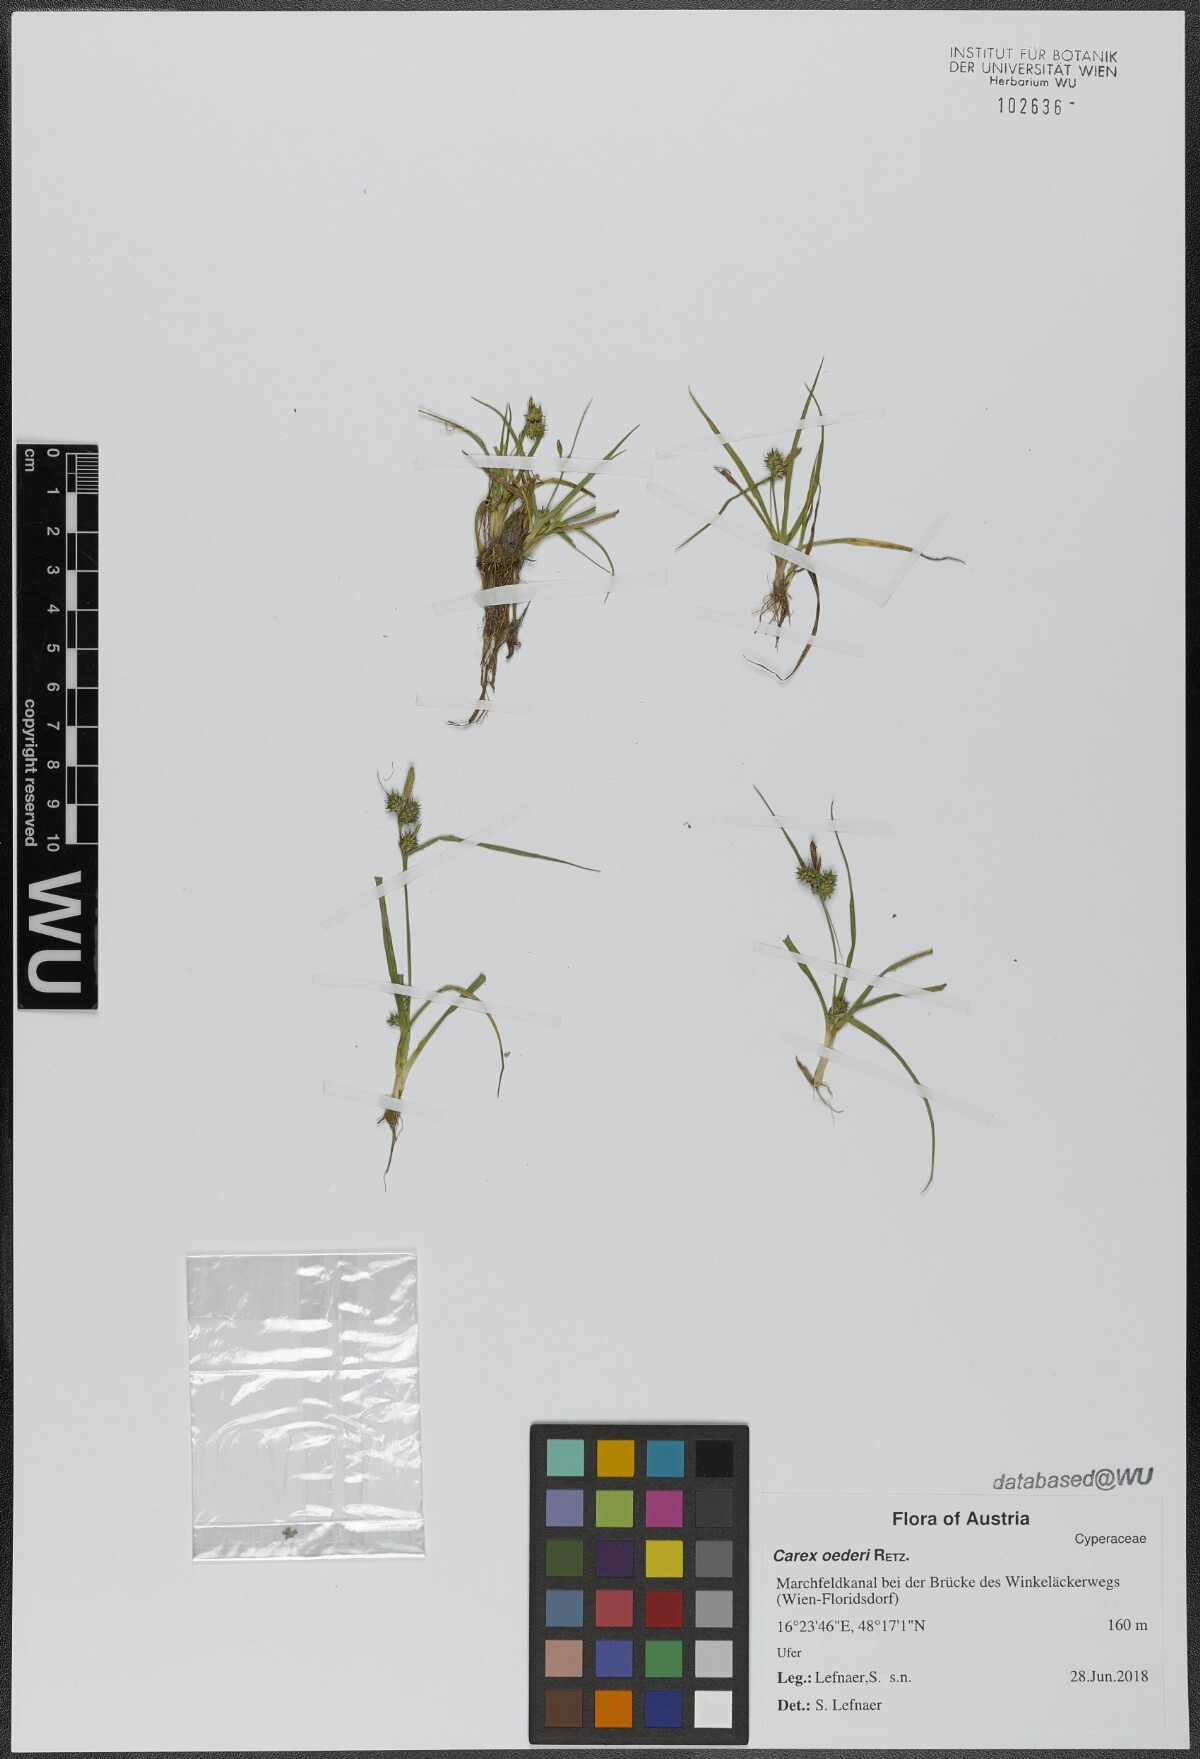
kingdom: Plantae
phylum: Tracheophyta
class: Liliopsida
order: Poales
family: Cyperaceae
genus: Carex
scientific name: Carex oederi
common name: Common & small-fruited yellow-sedge
